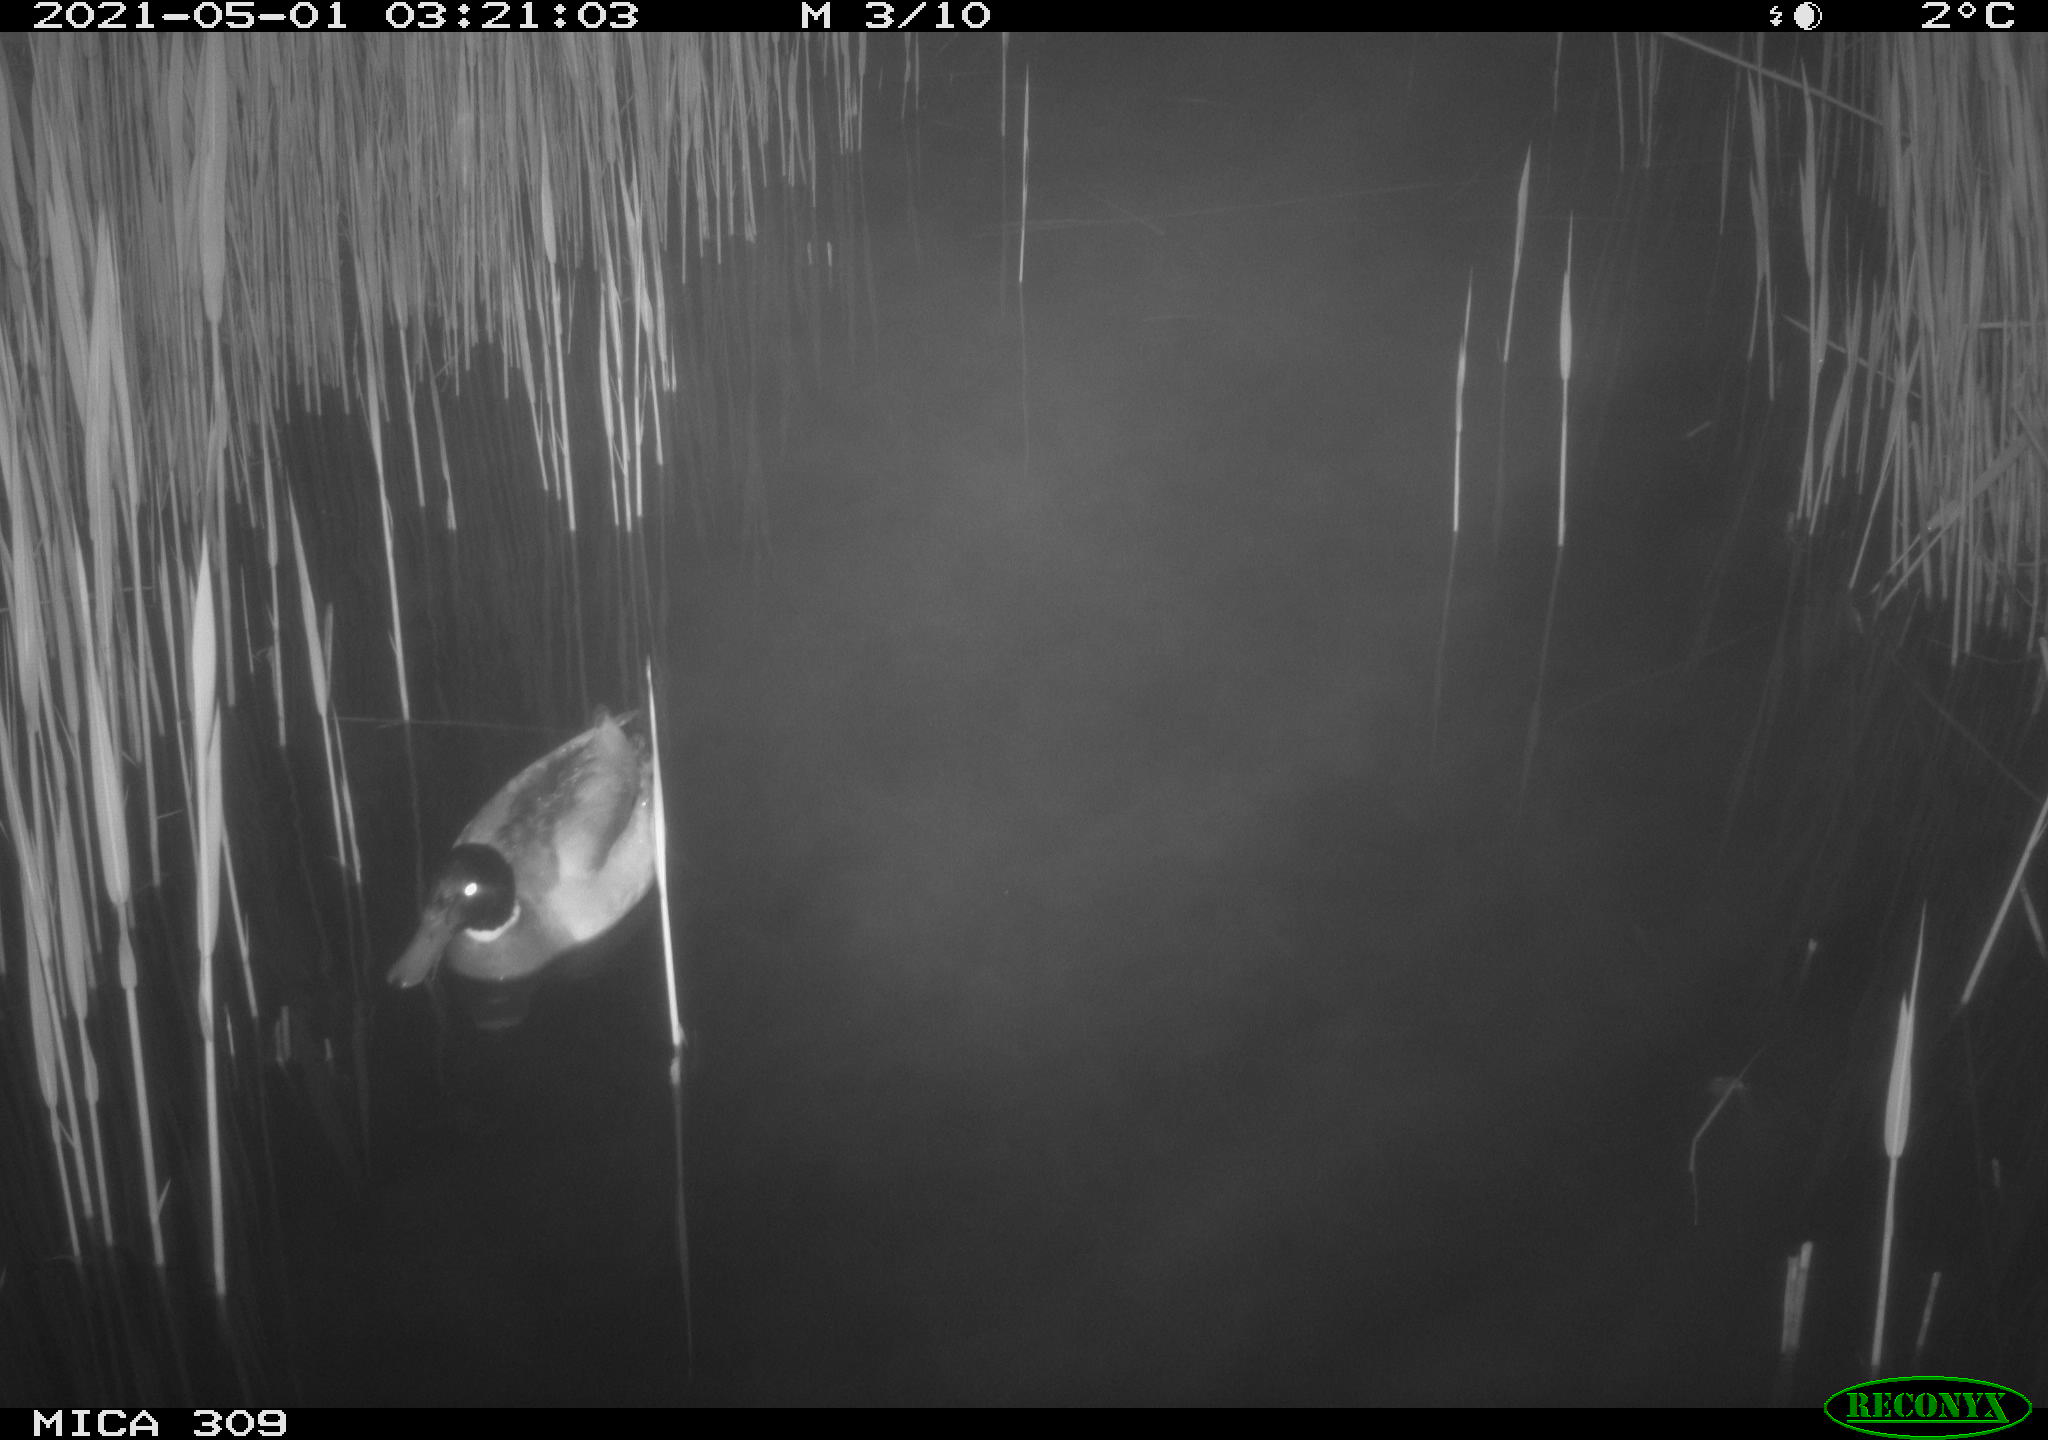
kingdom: Animalia
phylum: Chordata
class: Aves
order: Anseriformes
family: Anatidae
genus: Anas
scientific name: Anas platyrhynchos
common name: Mallard
